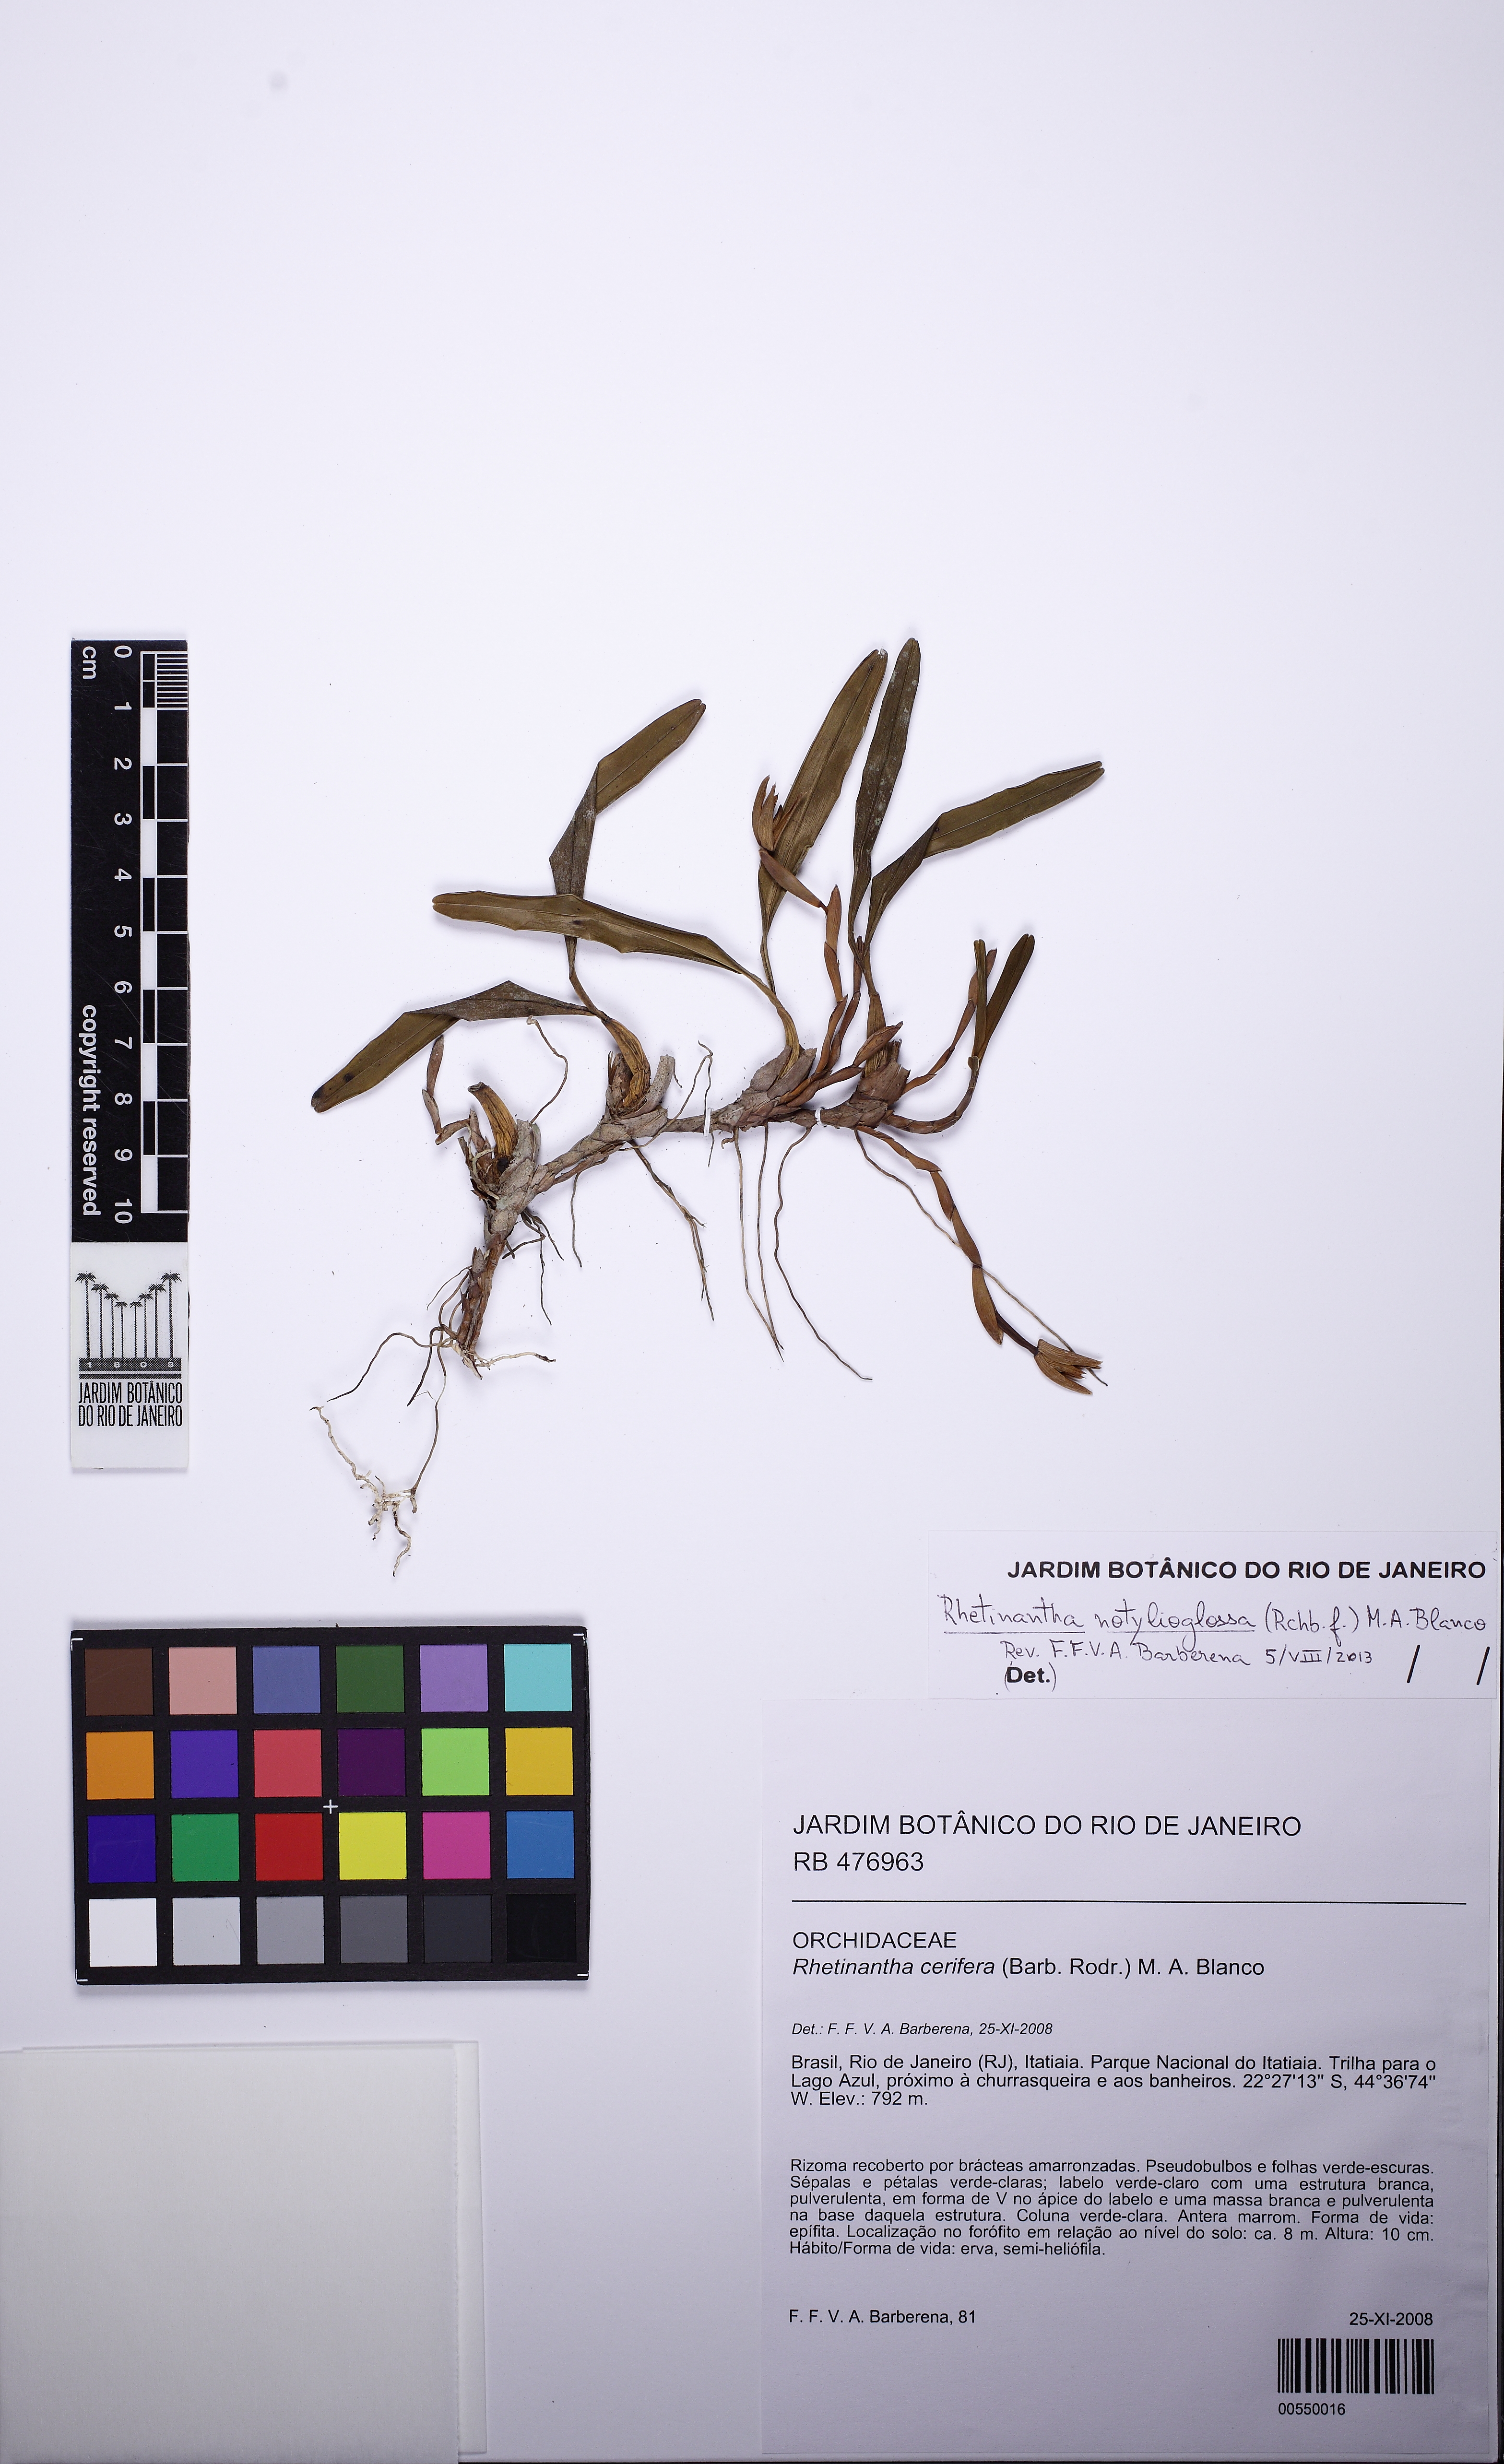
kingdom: Plantae
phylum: Tracheophyta
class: Liliopsida
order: Asparagales
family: Orchidaceae
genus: Maxillaria
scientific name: Maxillaria notylioglossa
